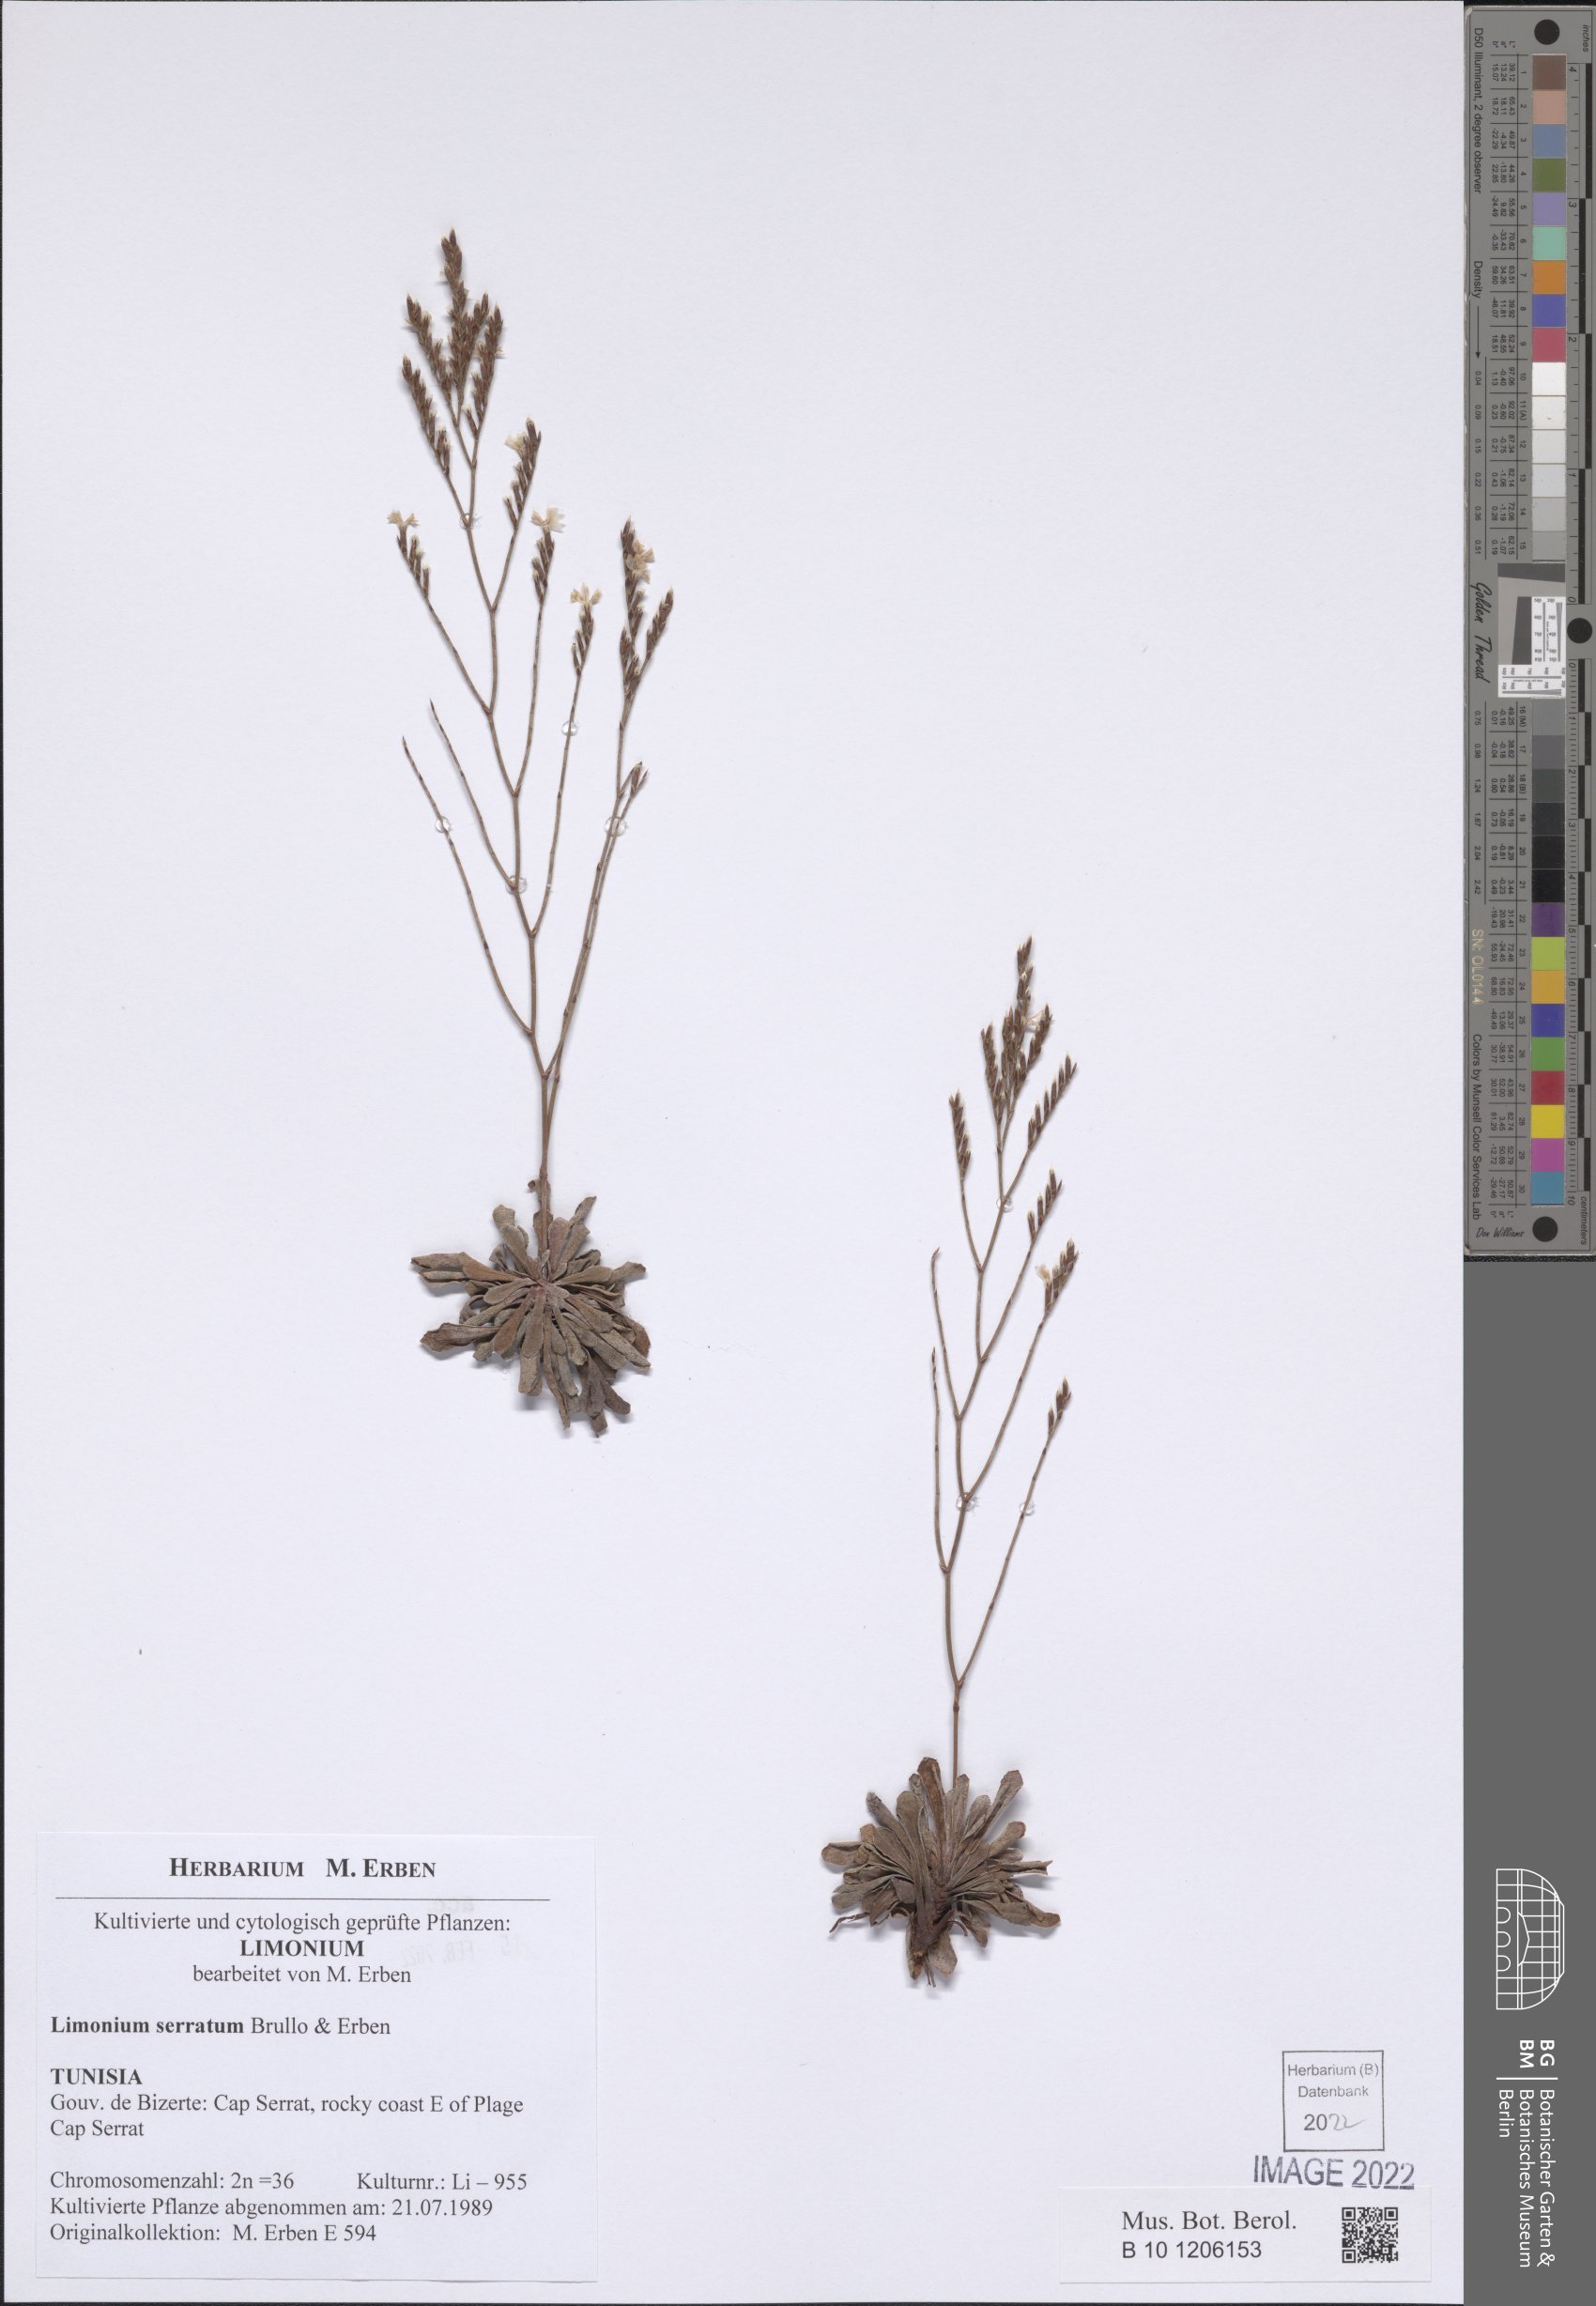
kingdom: Plantae
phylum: Tracheophyta
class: Magnoliopsida
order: Caryophyllales
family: Plumbaginaceae
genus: Limonium
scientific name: Limonium serratum
